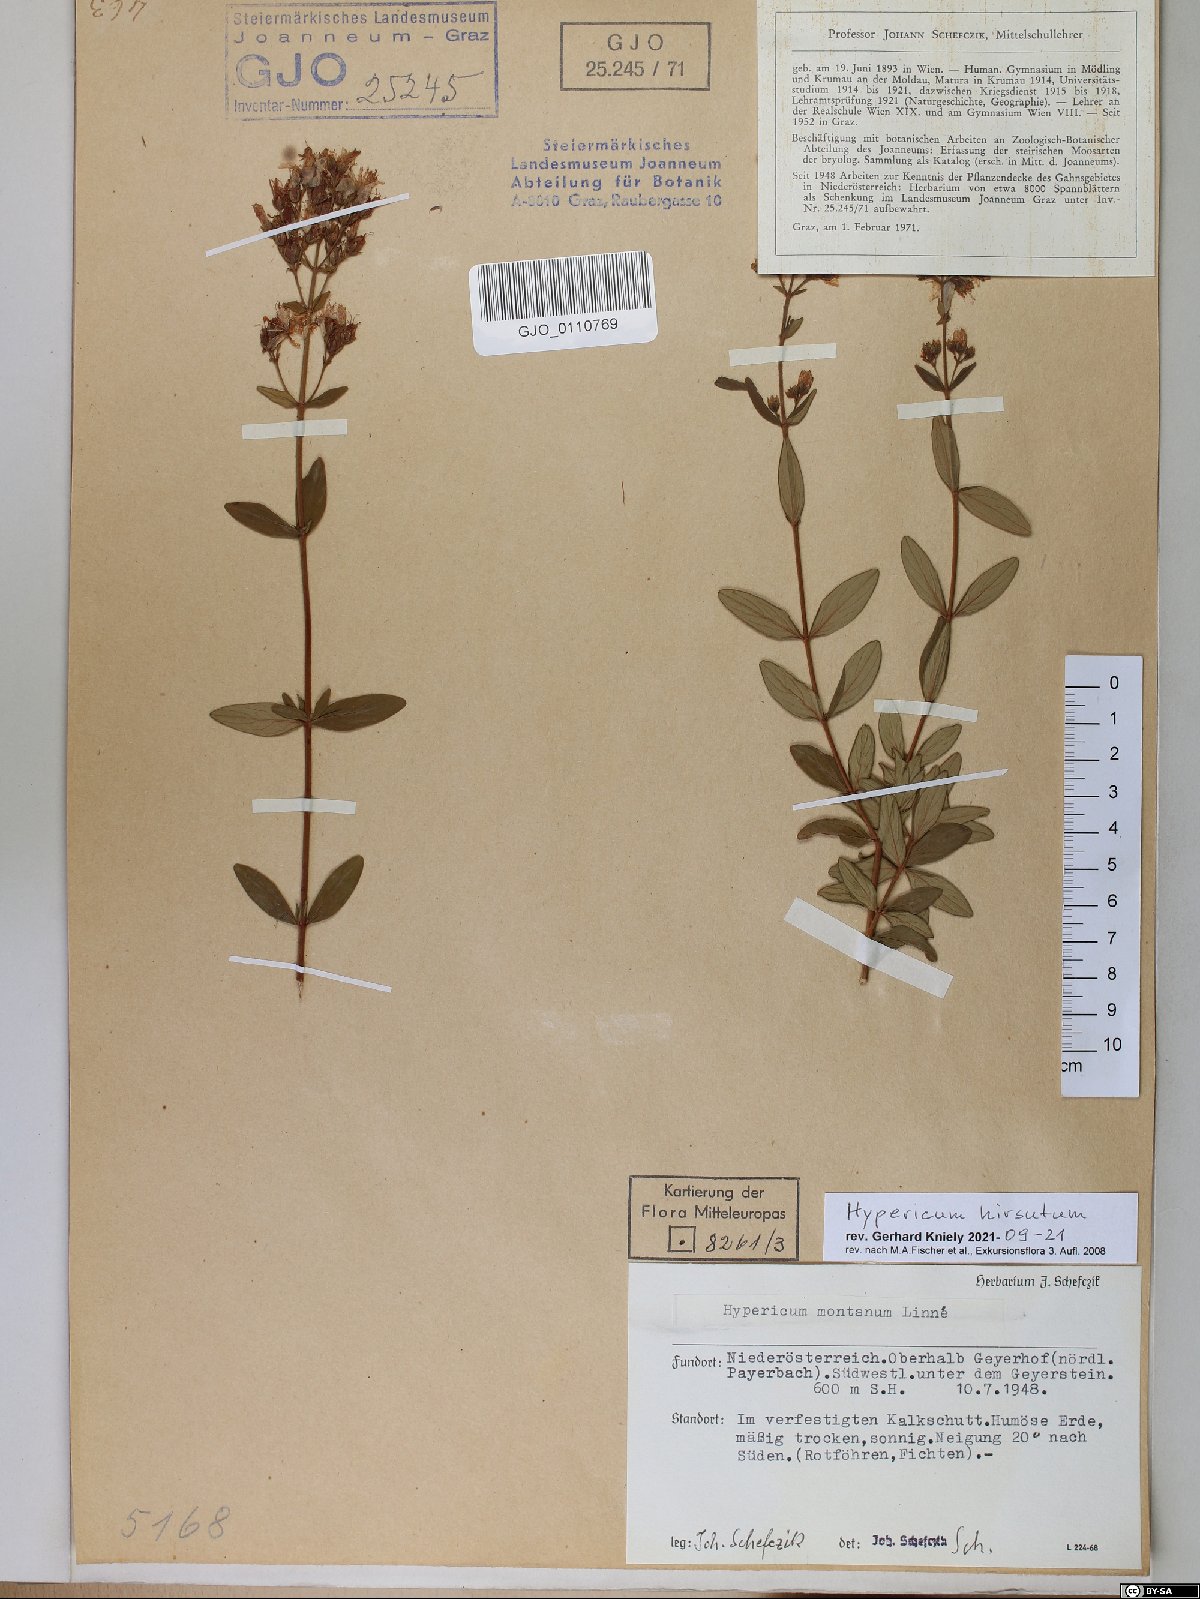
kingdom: Plantae
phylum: Tracheophyta
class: Magnoliopsida
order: Malpighiales
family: Hypericaceae
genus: Hypericum
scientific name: Hypericum hirsutum
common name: Hairy st. john's-wort
